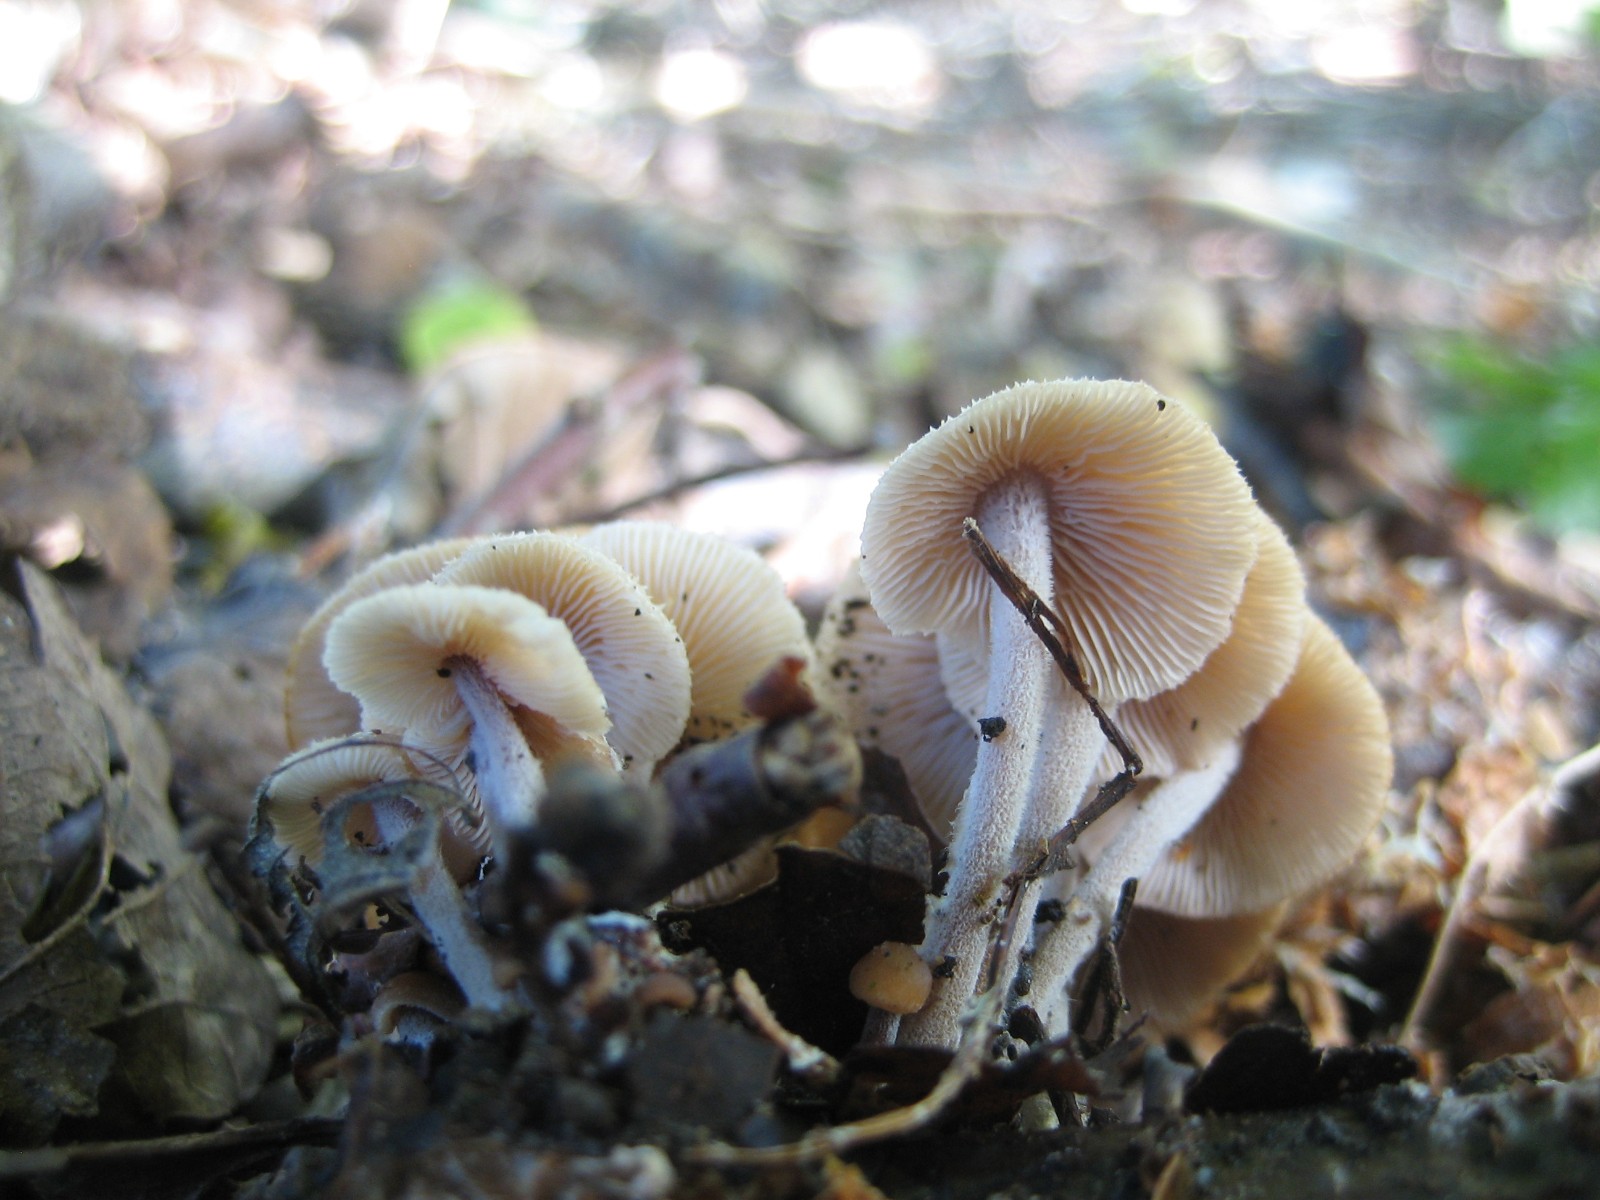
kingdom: Fungi
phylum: Basidiomycota
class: Agaricomycetes
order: Agaricales
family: Omphalotaceae
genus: Collybiopsis
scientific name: Collybiopsis confluens
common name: knippe-fladhat
